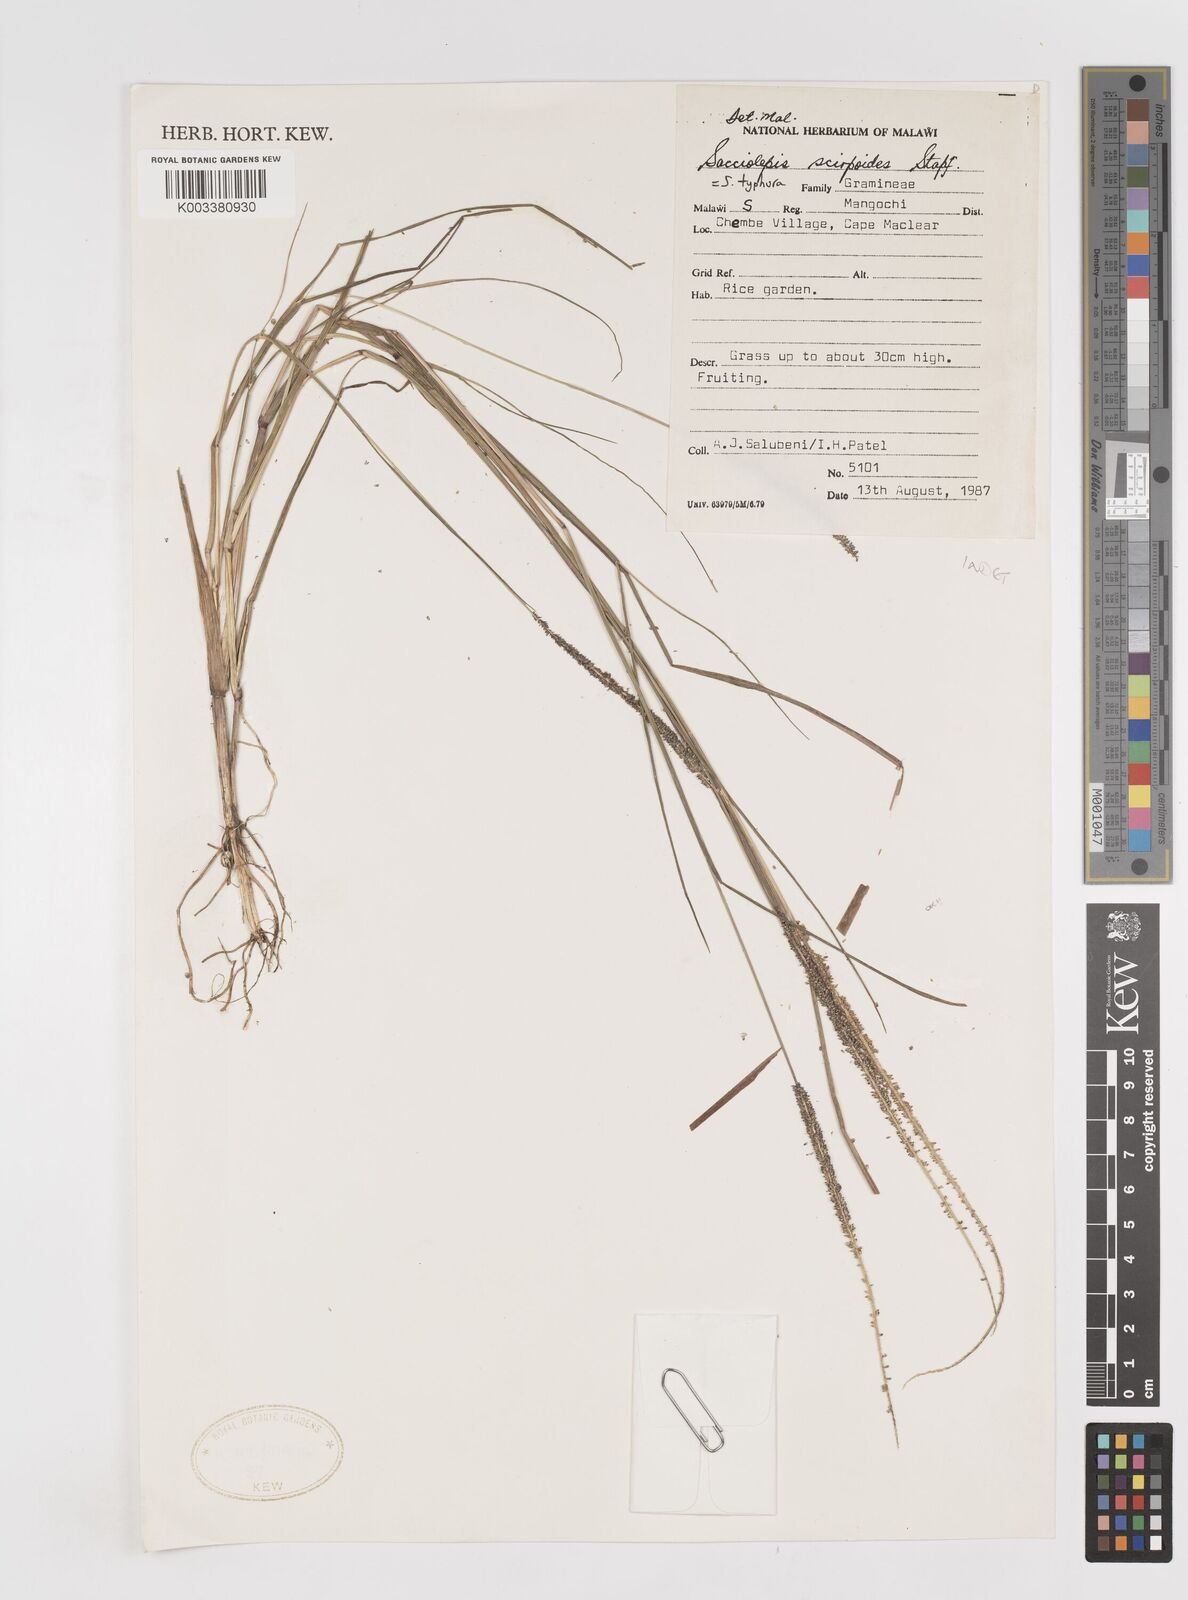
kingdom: Plantae
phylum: Tracheophyta
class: Liliopsida
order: Poales
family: Poaceae
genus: Sacciolepis
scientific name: Sacciolepis typhura
